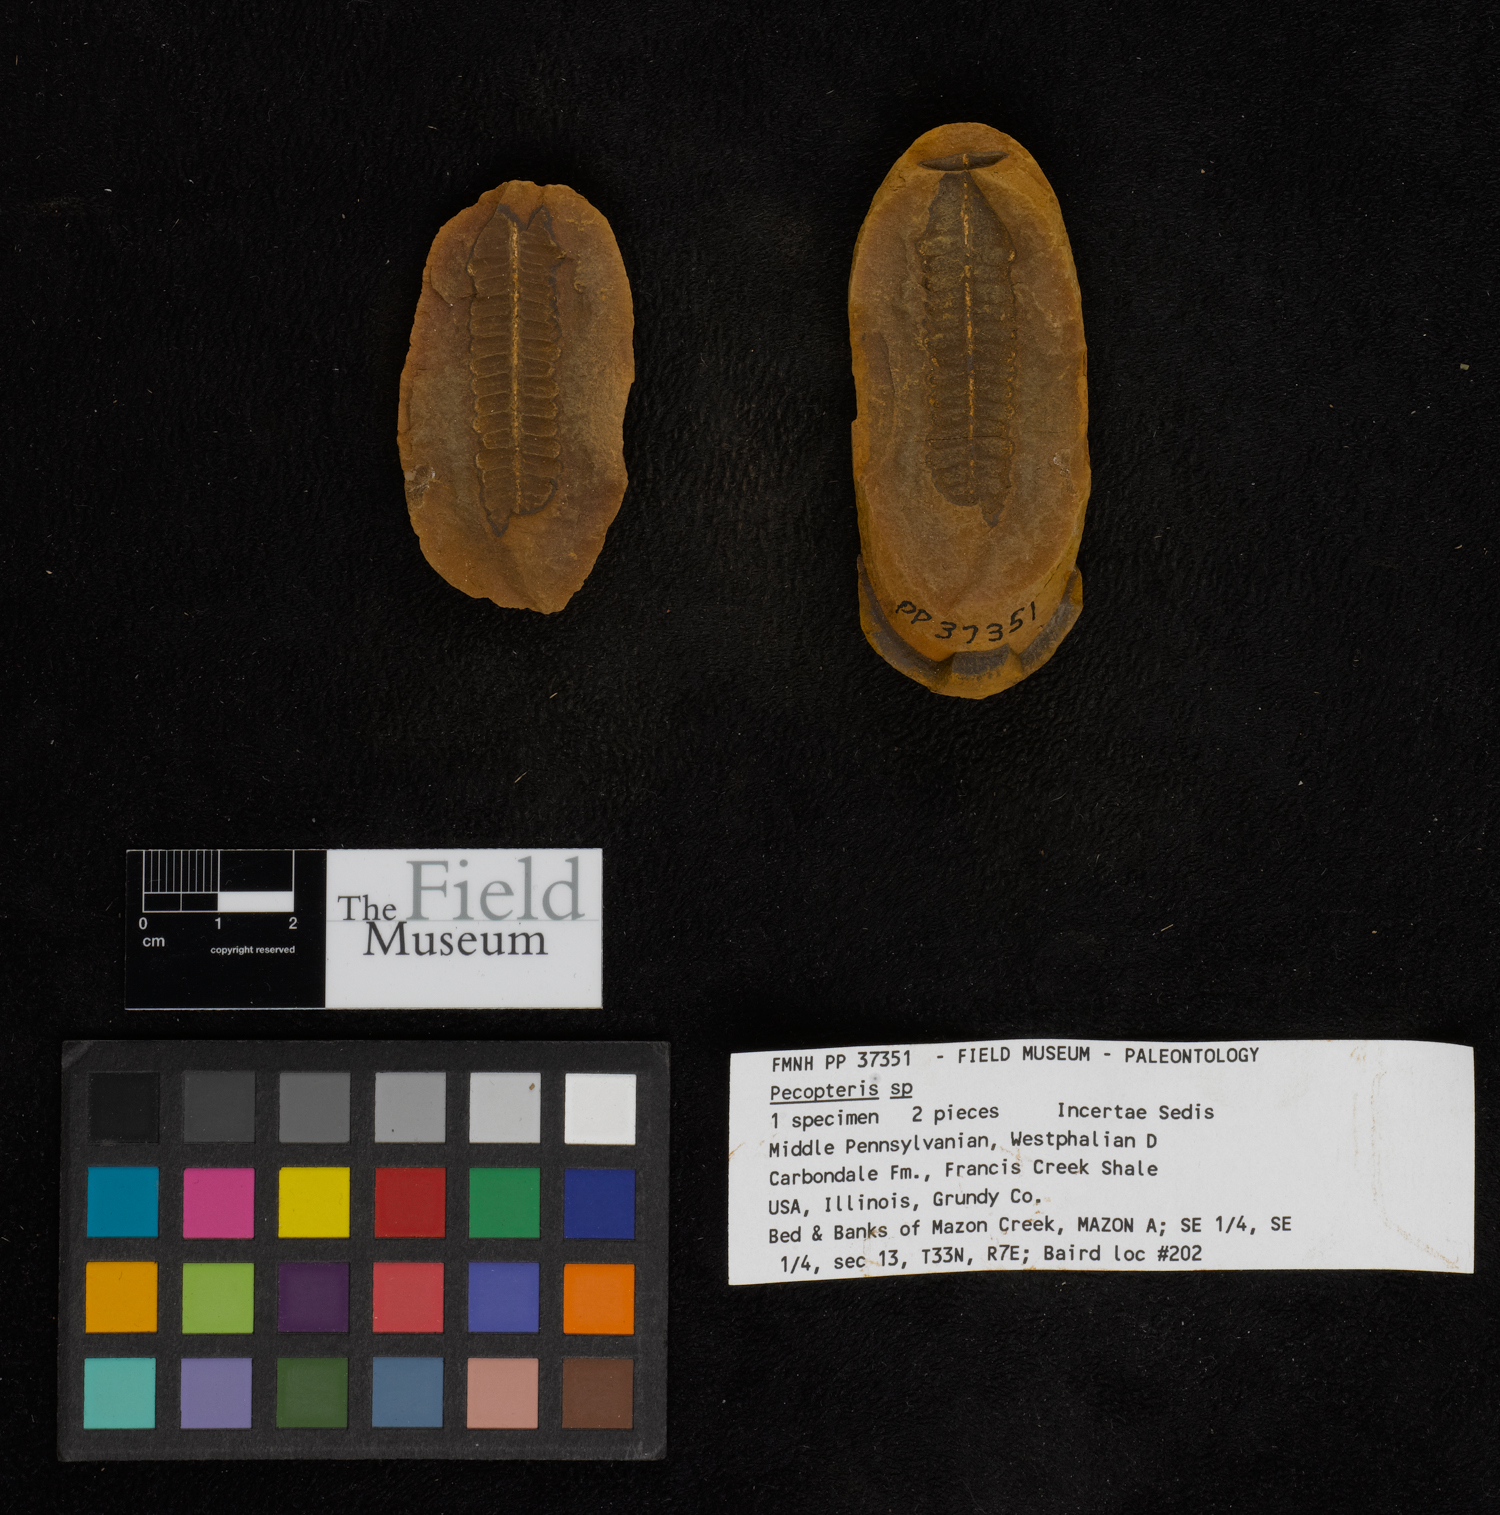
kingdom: Plantae
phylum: Tracheophyta
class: Polypodiopsida
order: Marattiales
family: Asterothecaceae
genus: Pecopteris
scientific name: Pecopteris
